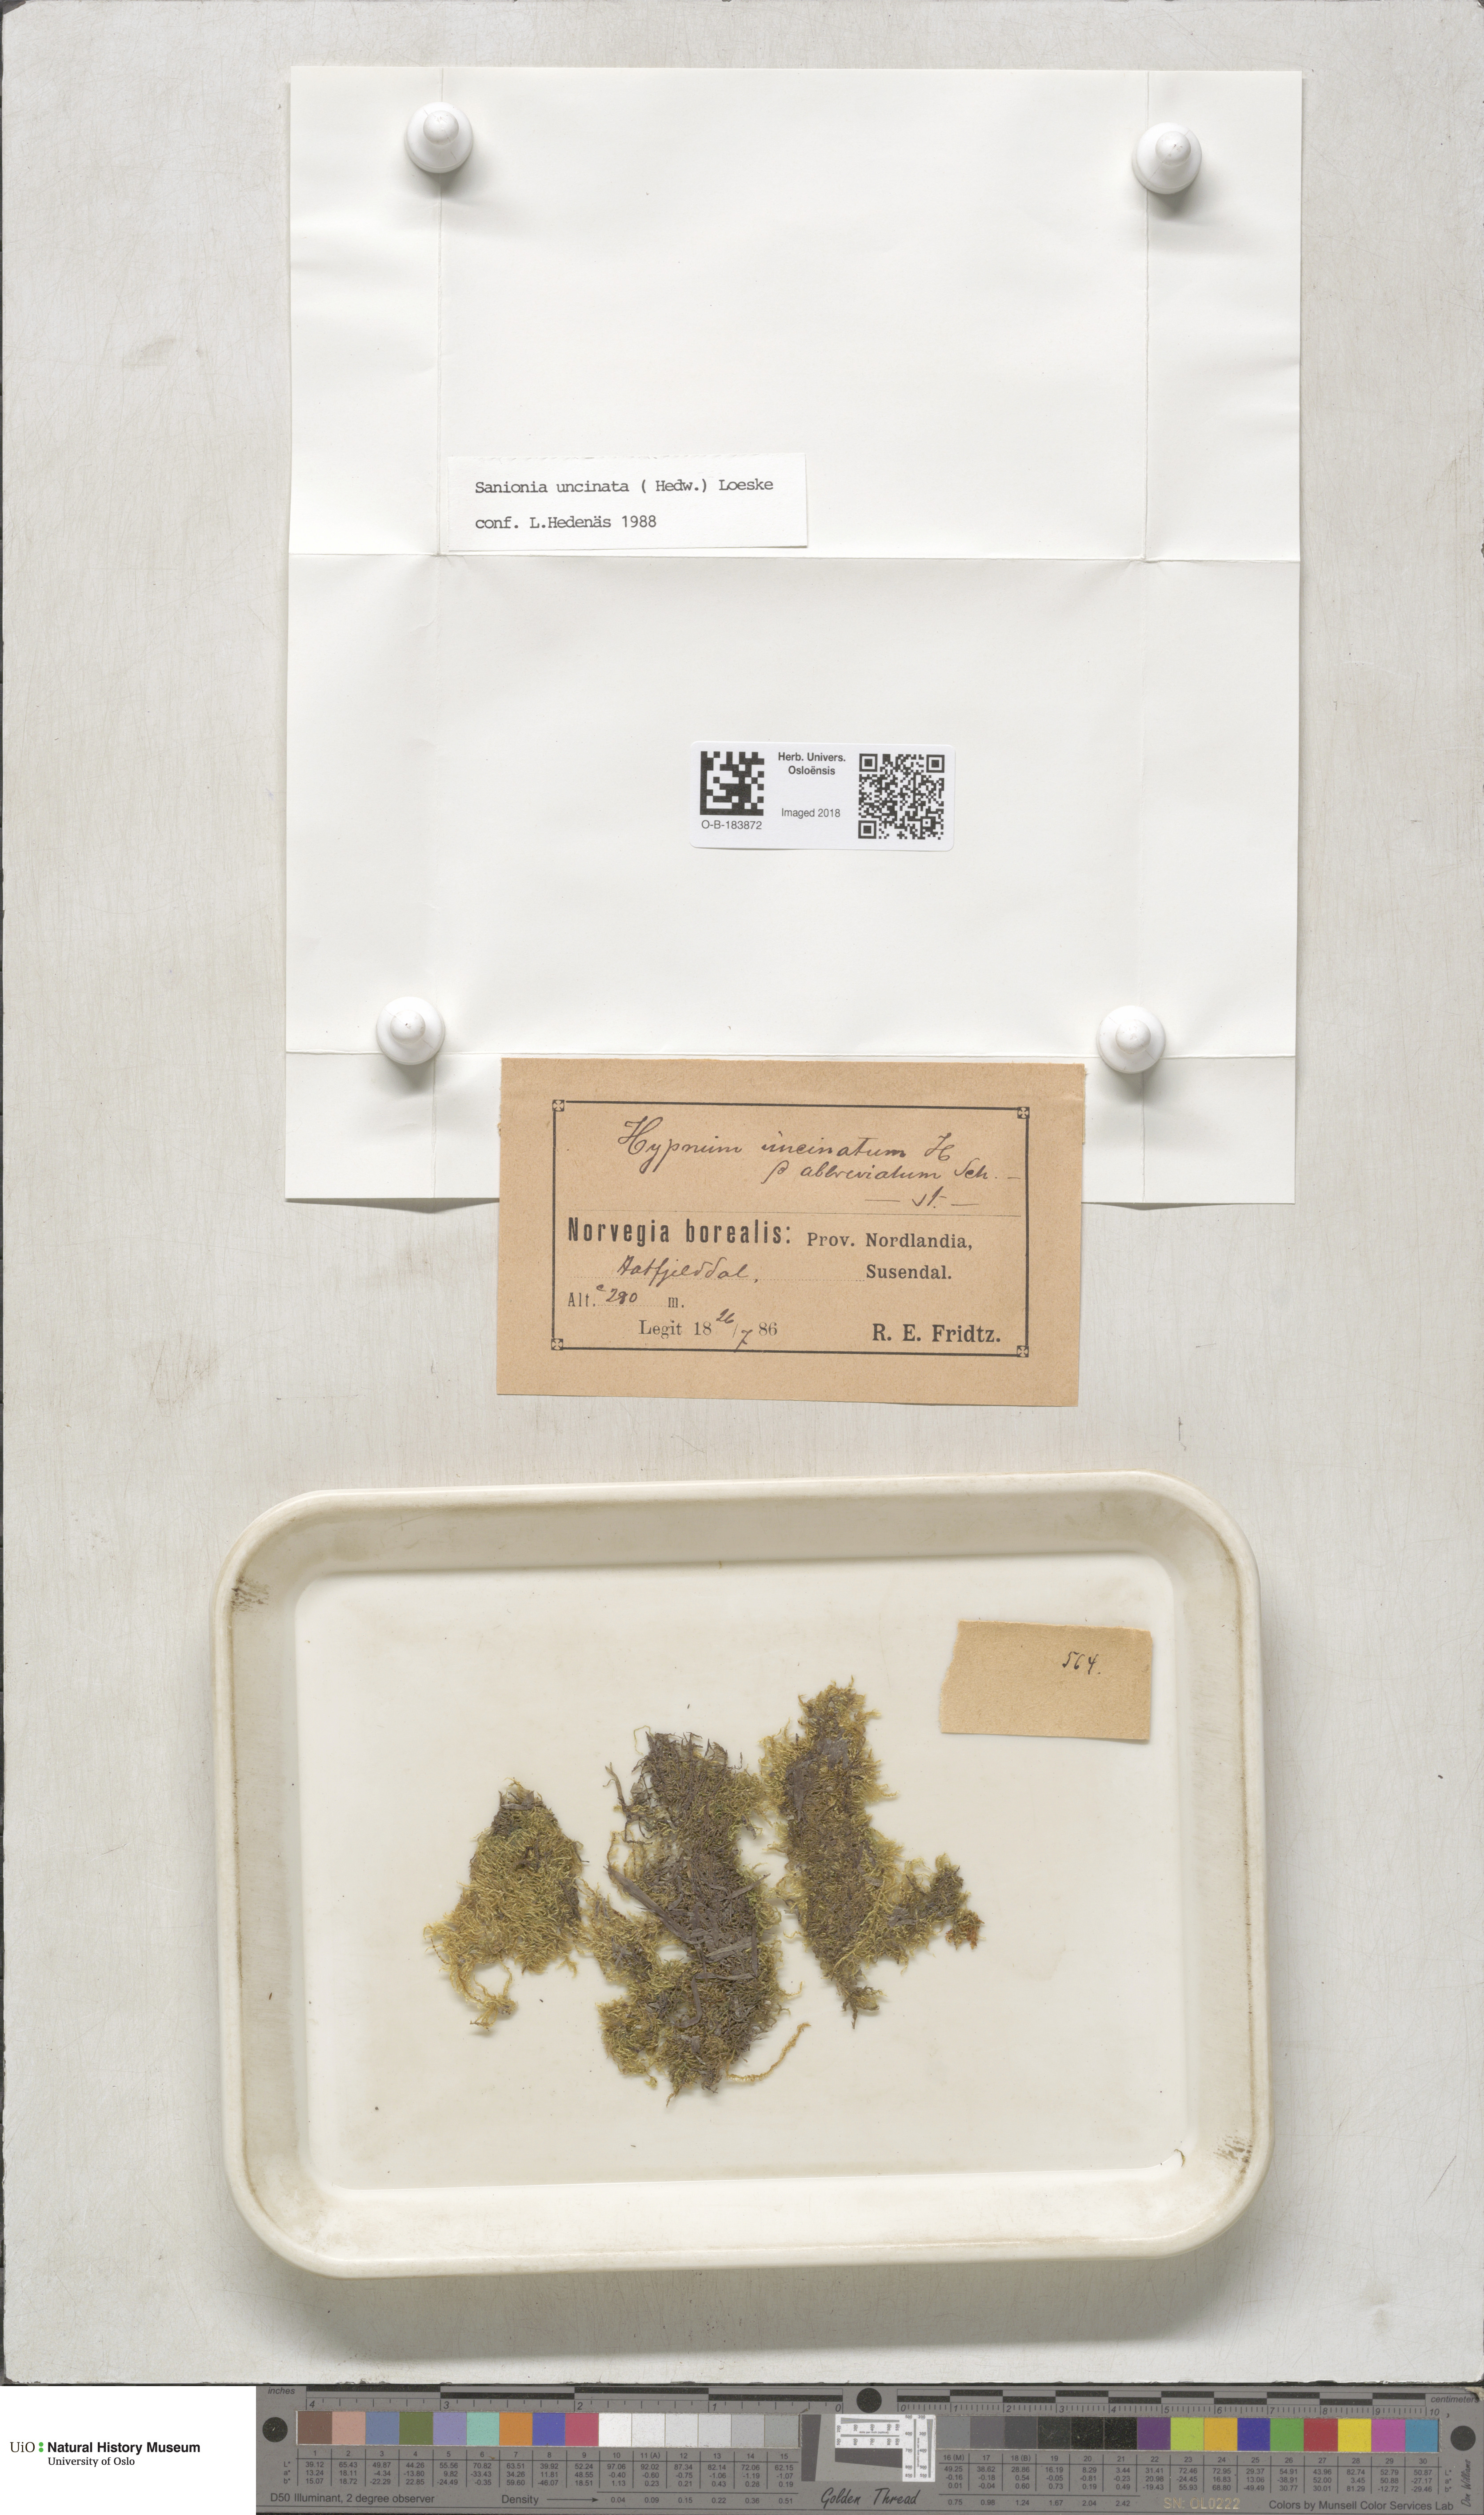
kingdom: Plantae
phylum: Bryophyta
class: Bryopsida
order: Hypnales
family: Scorpidiaceae
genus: Sanionia
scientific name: Sanionia uncinata
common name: Sickle moss
